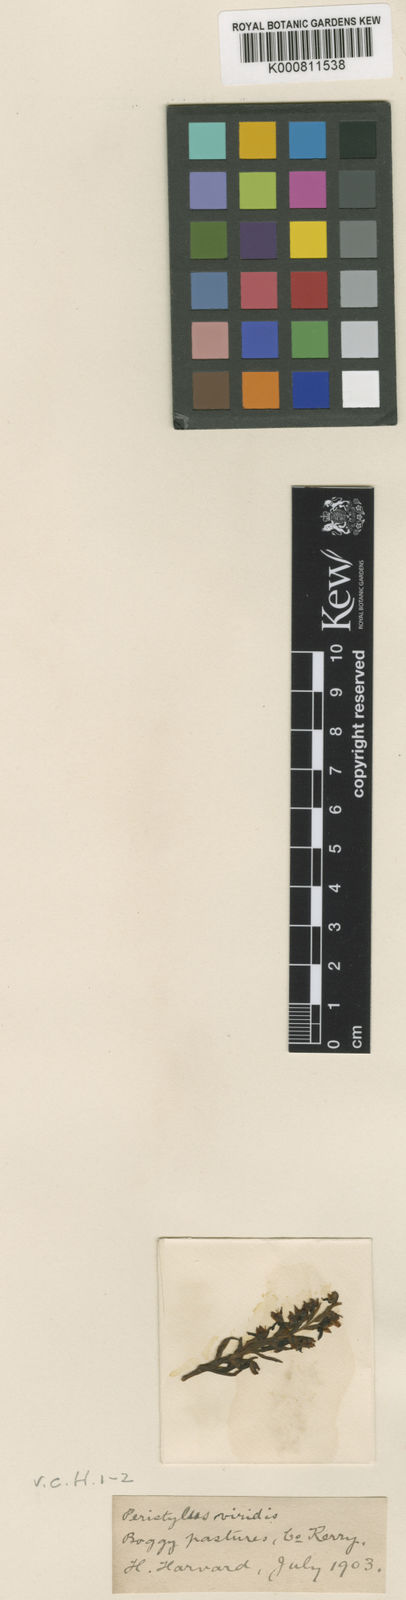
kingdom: Plantae
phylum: Tracheophyta
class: Liliopsida
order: Asparagales
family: Orchidaceae
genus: Dactylorhiza
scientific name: Dactylorhiza viridis
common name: Longbract frog orchid
